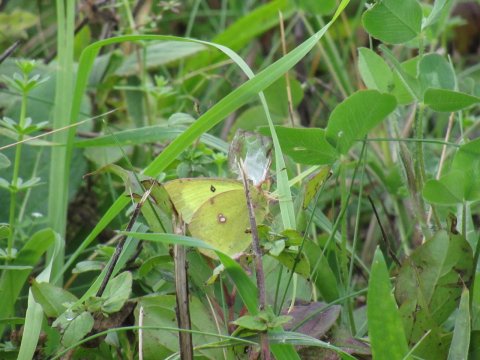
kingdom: Animalia
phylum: Arthropoda
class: Insecta
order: Lepidoptera
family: Pieridae
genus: Colias
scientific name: Colias philodice
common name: Clouded Sulphur
